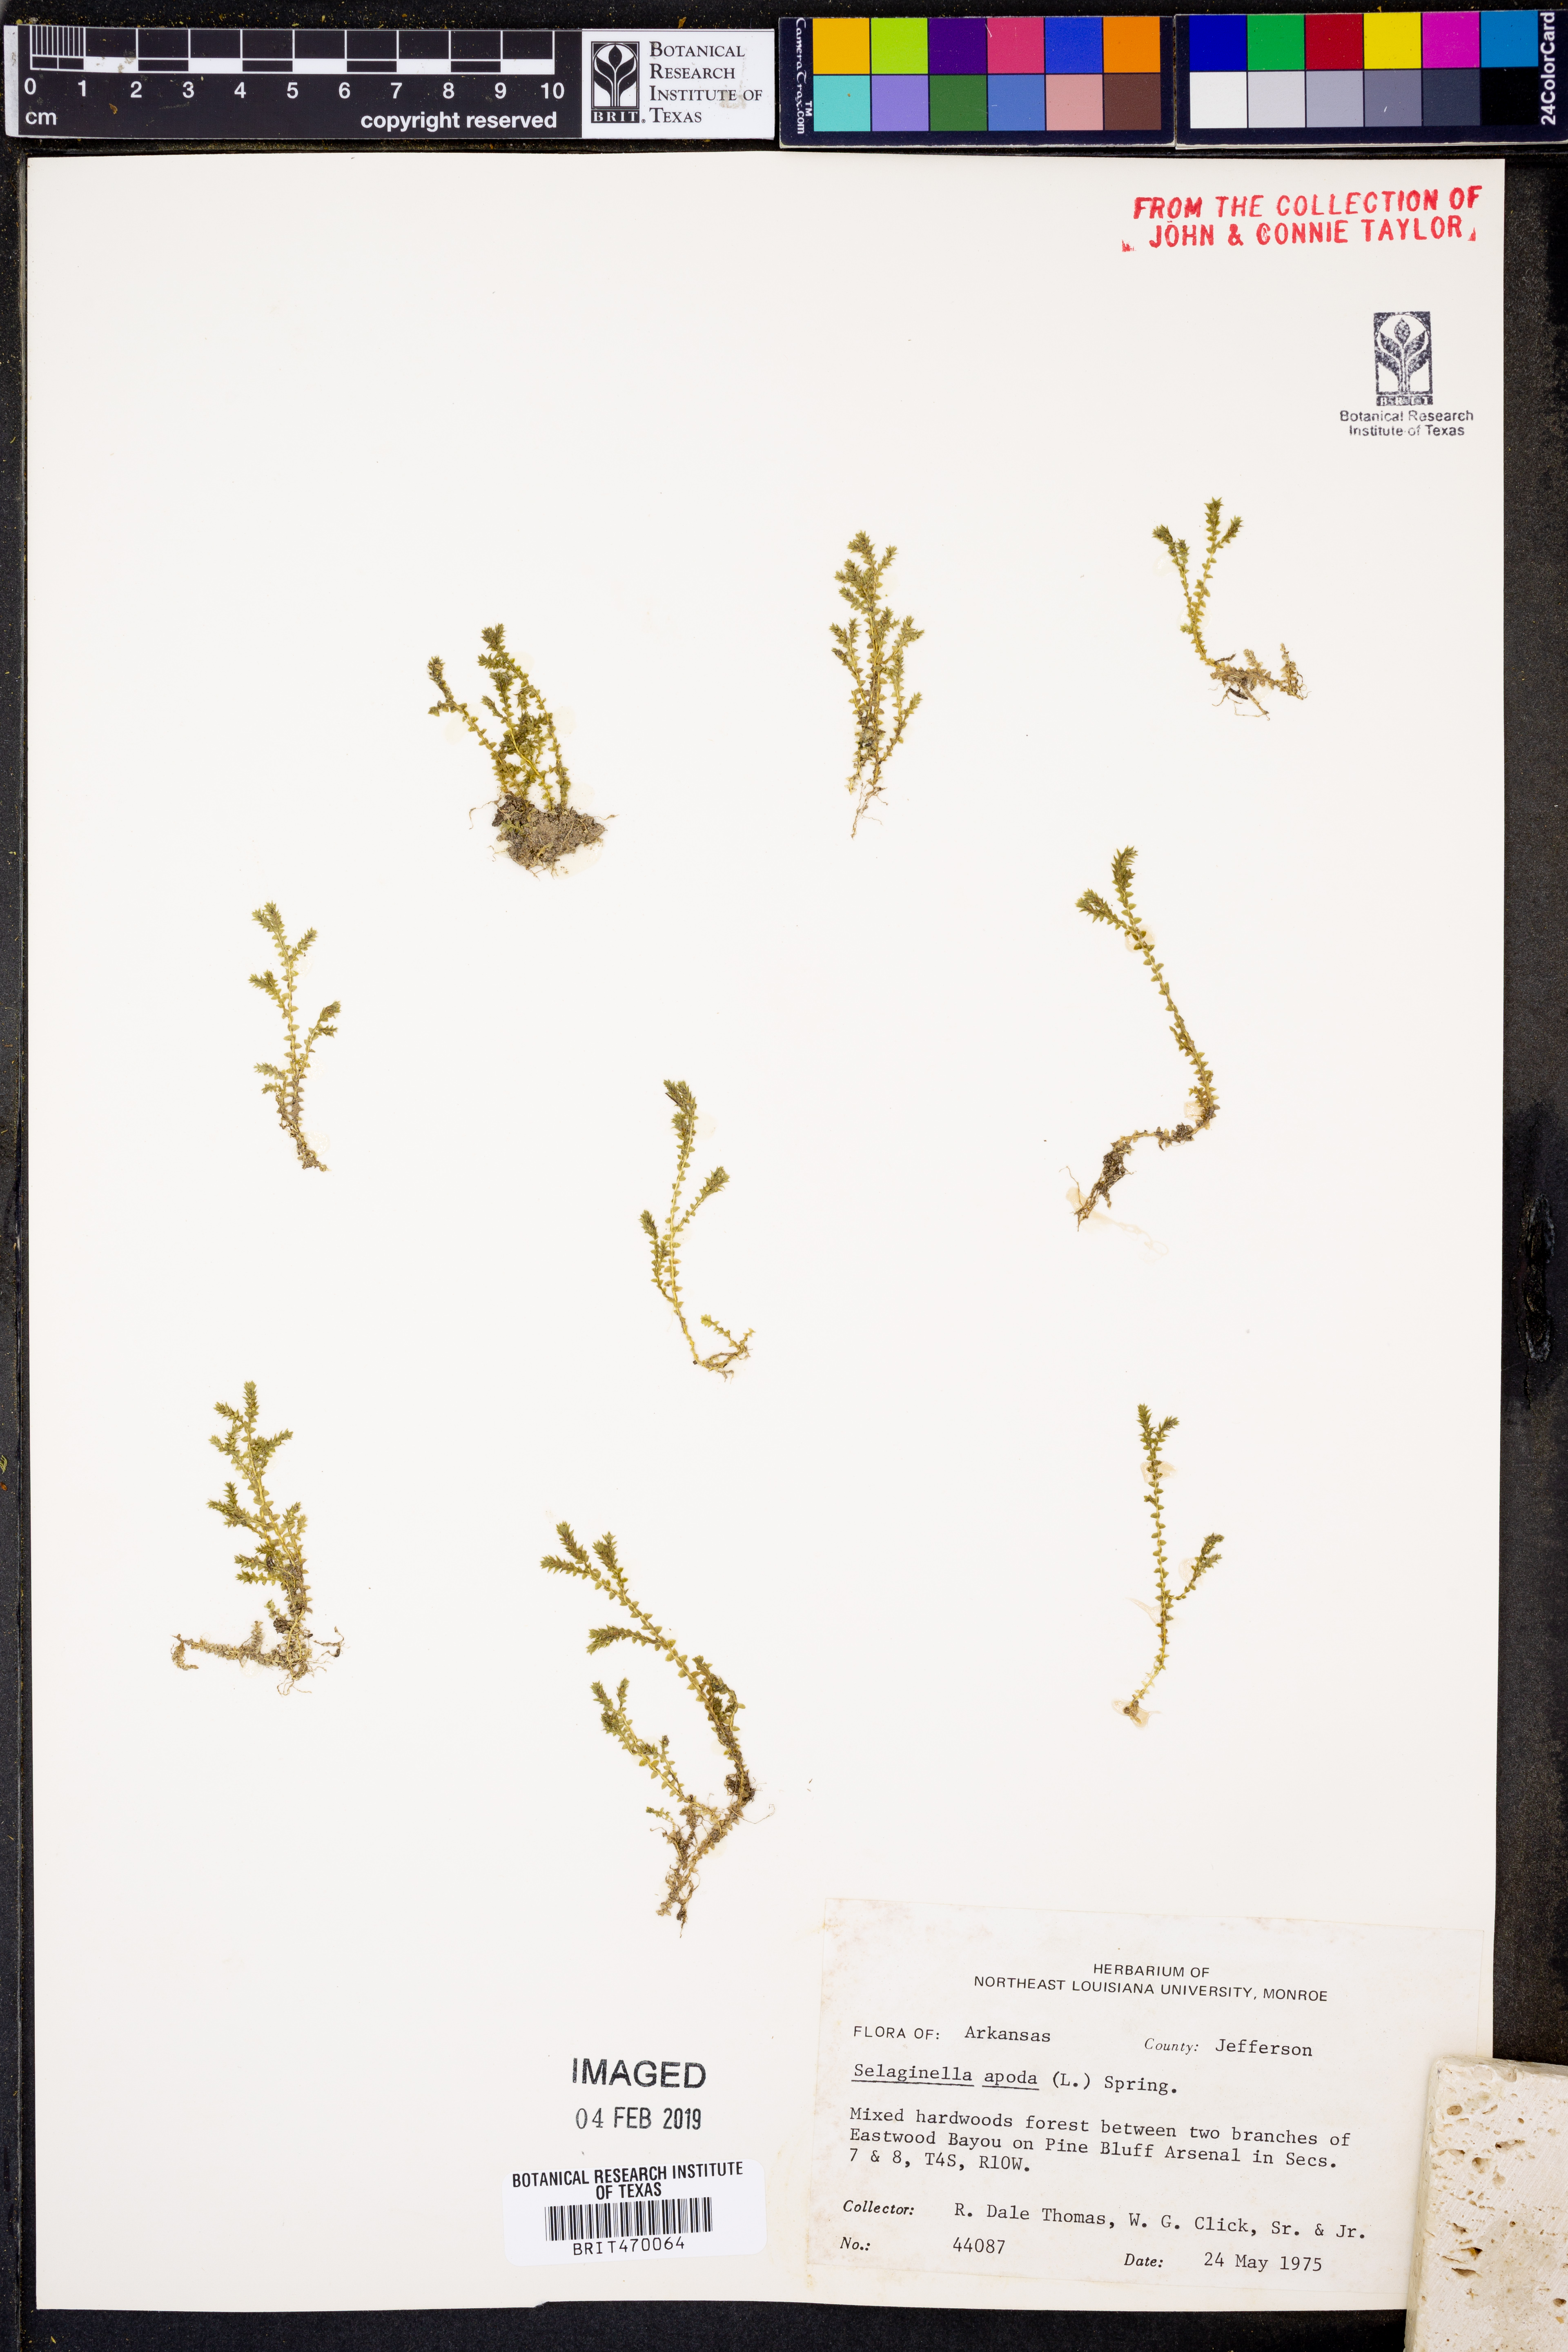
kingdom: Plantae
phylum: Tracheophyta
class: Lycopodiopsida
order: Selaginellales
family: Selaginellaceae
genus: Selaginella
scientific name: Selaginella apoda
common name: Creeping spikemoss
